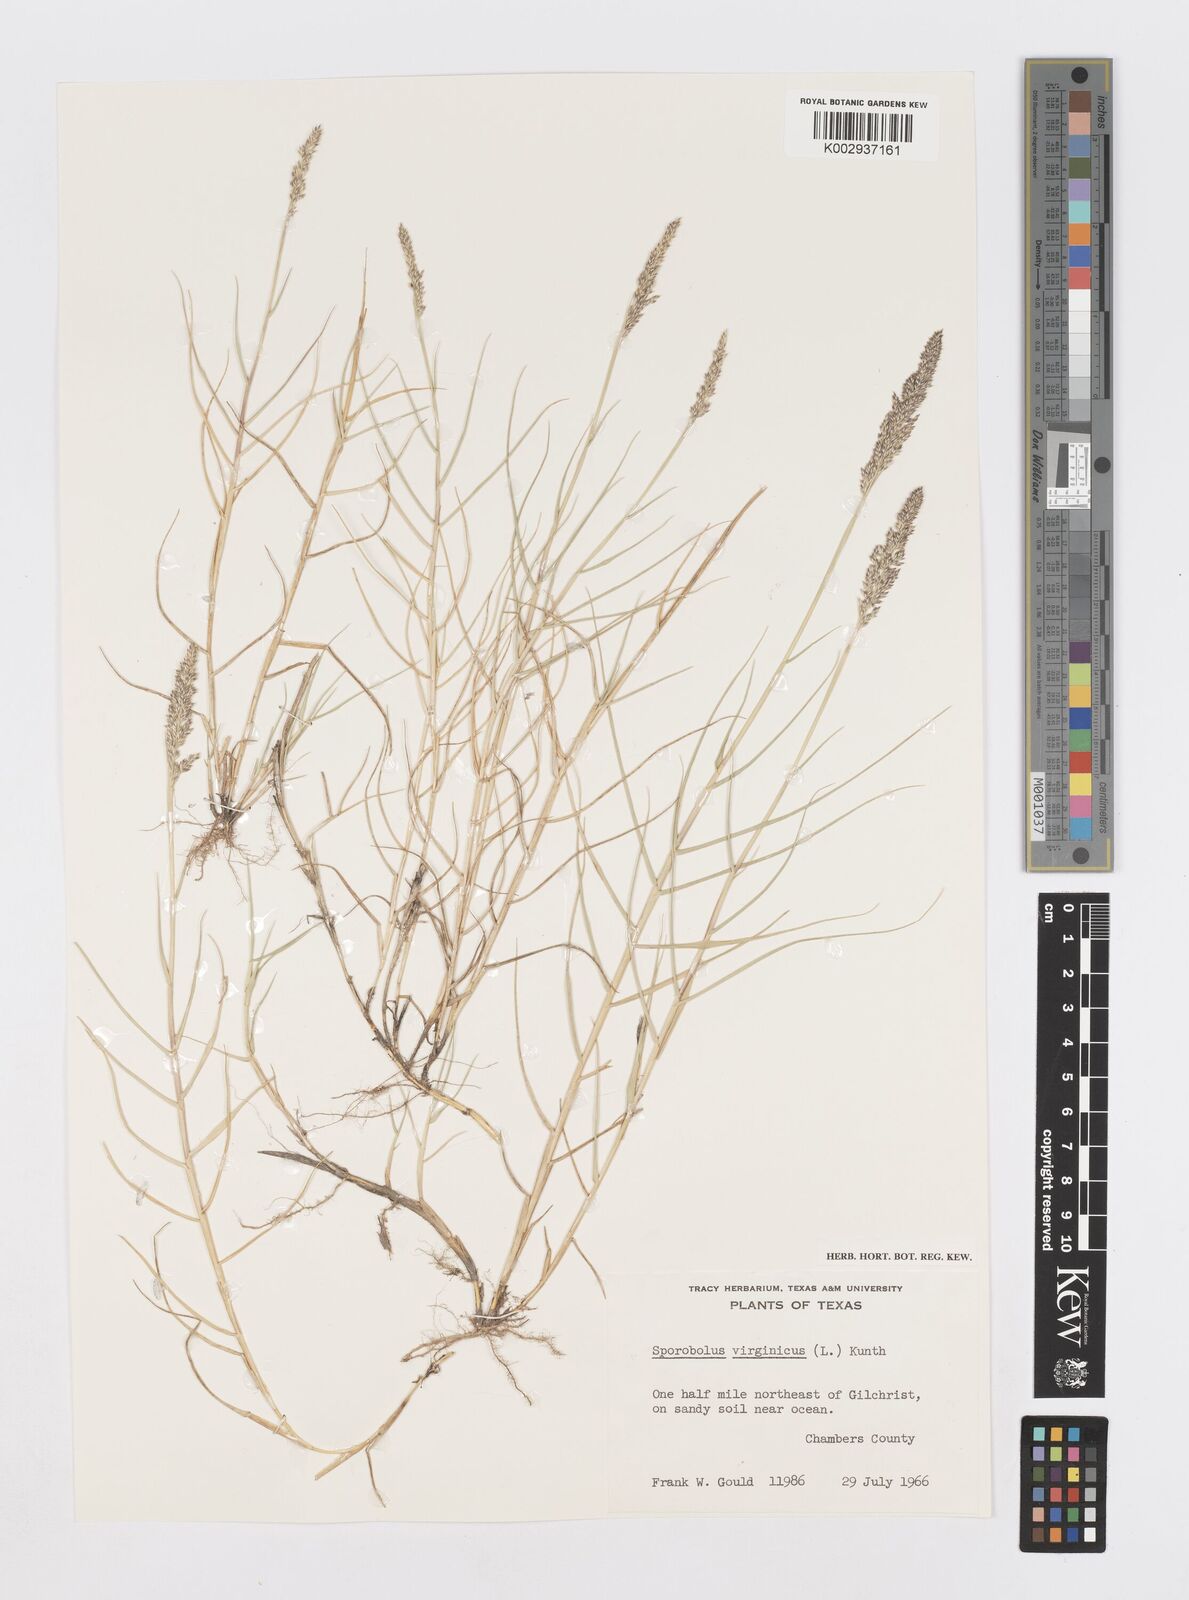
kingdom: Plantae
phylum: Tracheophyta
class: Liliopsida
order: Poales
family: Poaceae
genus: Sporobolus
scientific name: Sporobolus virginicus
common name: Beach dropseed
